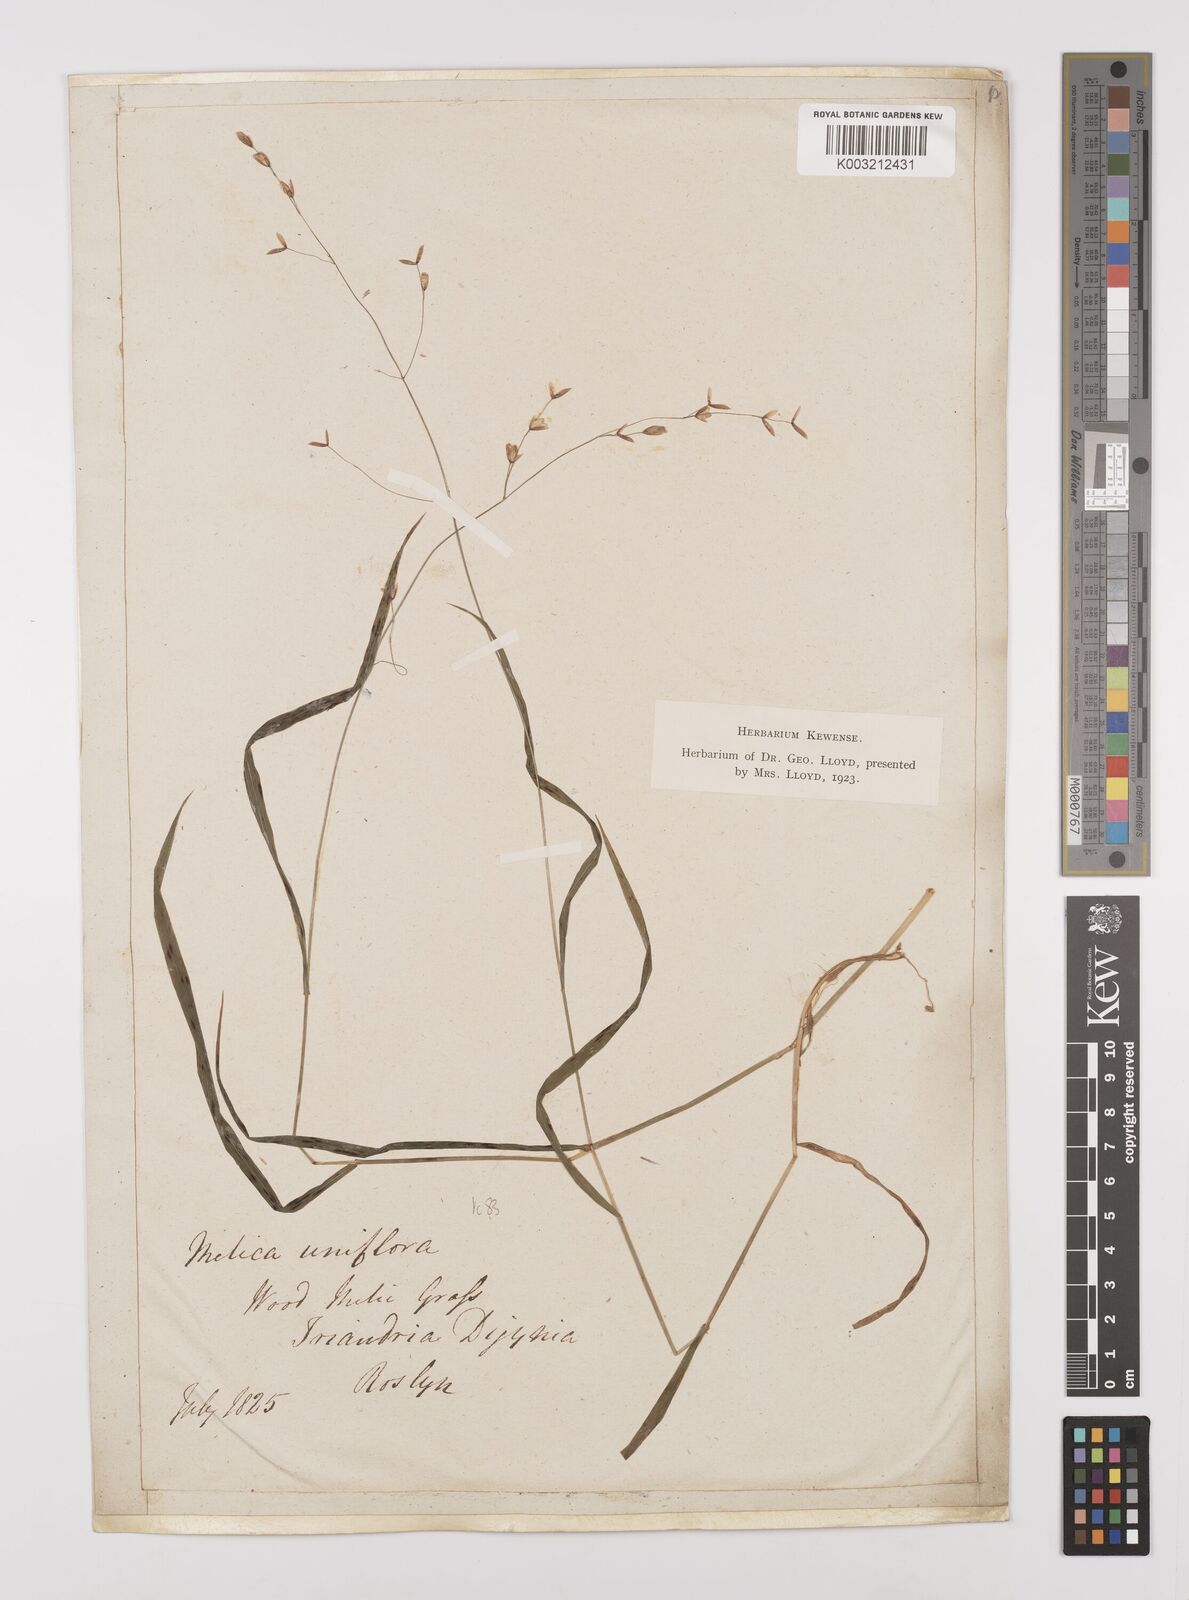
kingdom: Plantae
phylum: Tracheophyta
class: Liliopsida
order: Poales
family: Poaceae
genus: Melica
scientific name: Melica uniflora
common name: Wood melick
